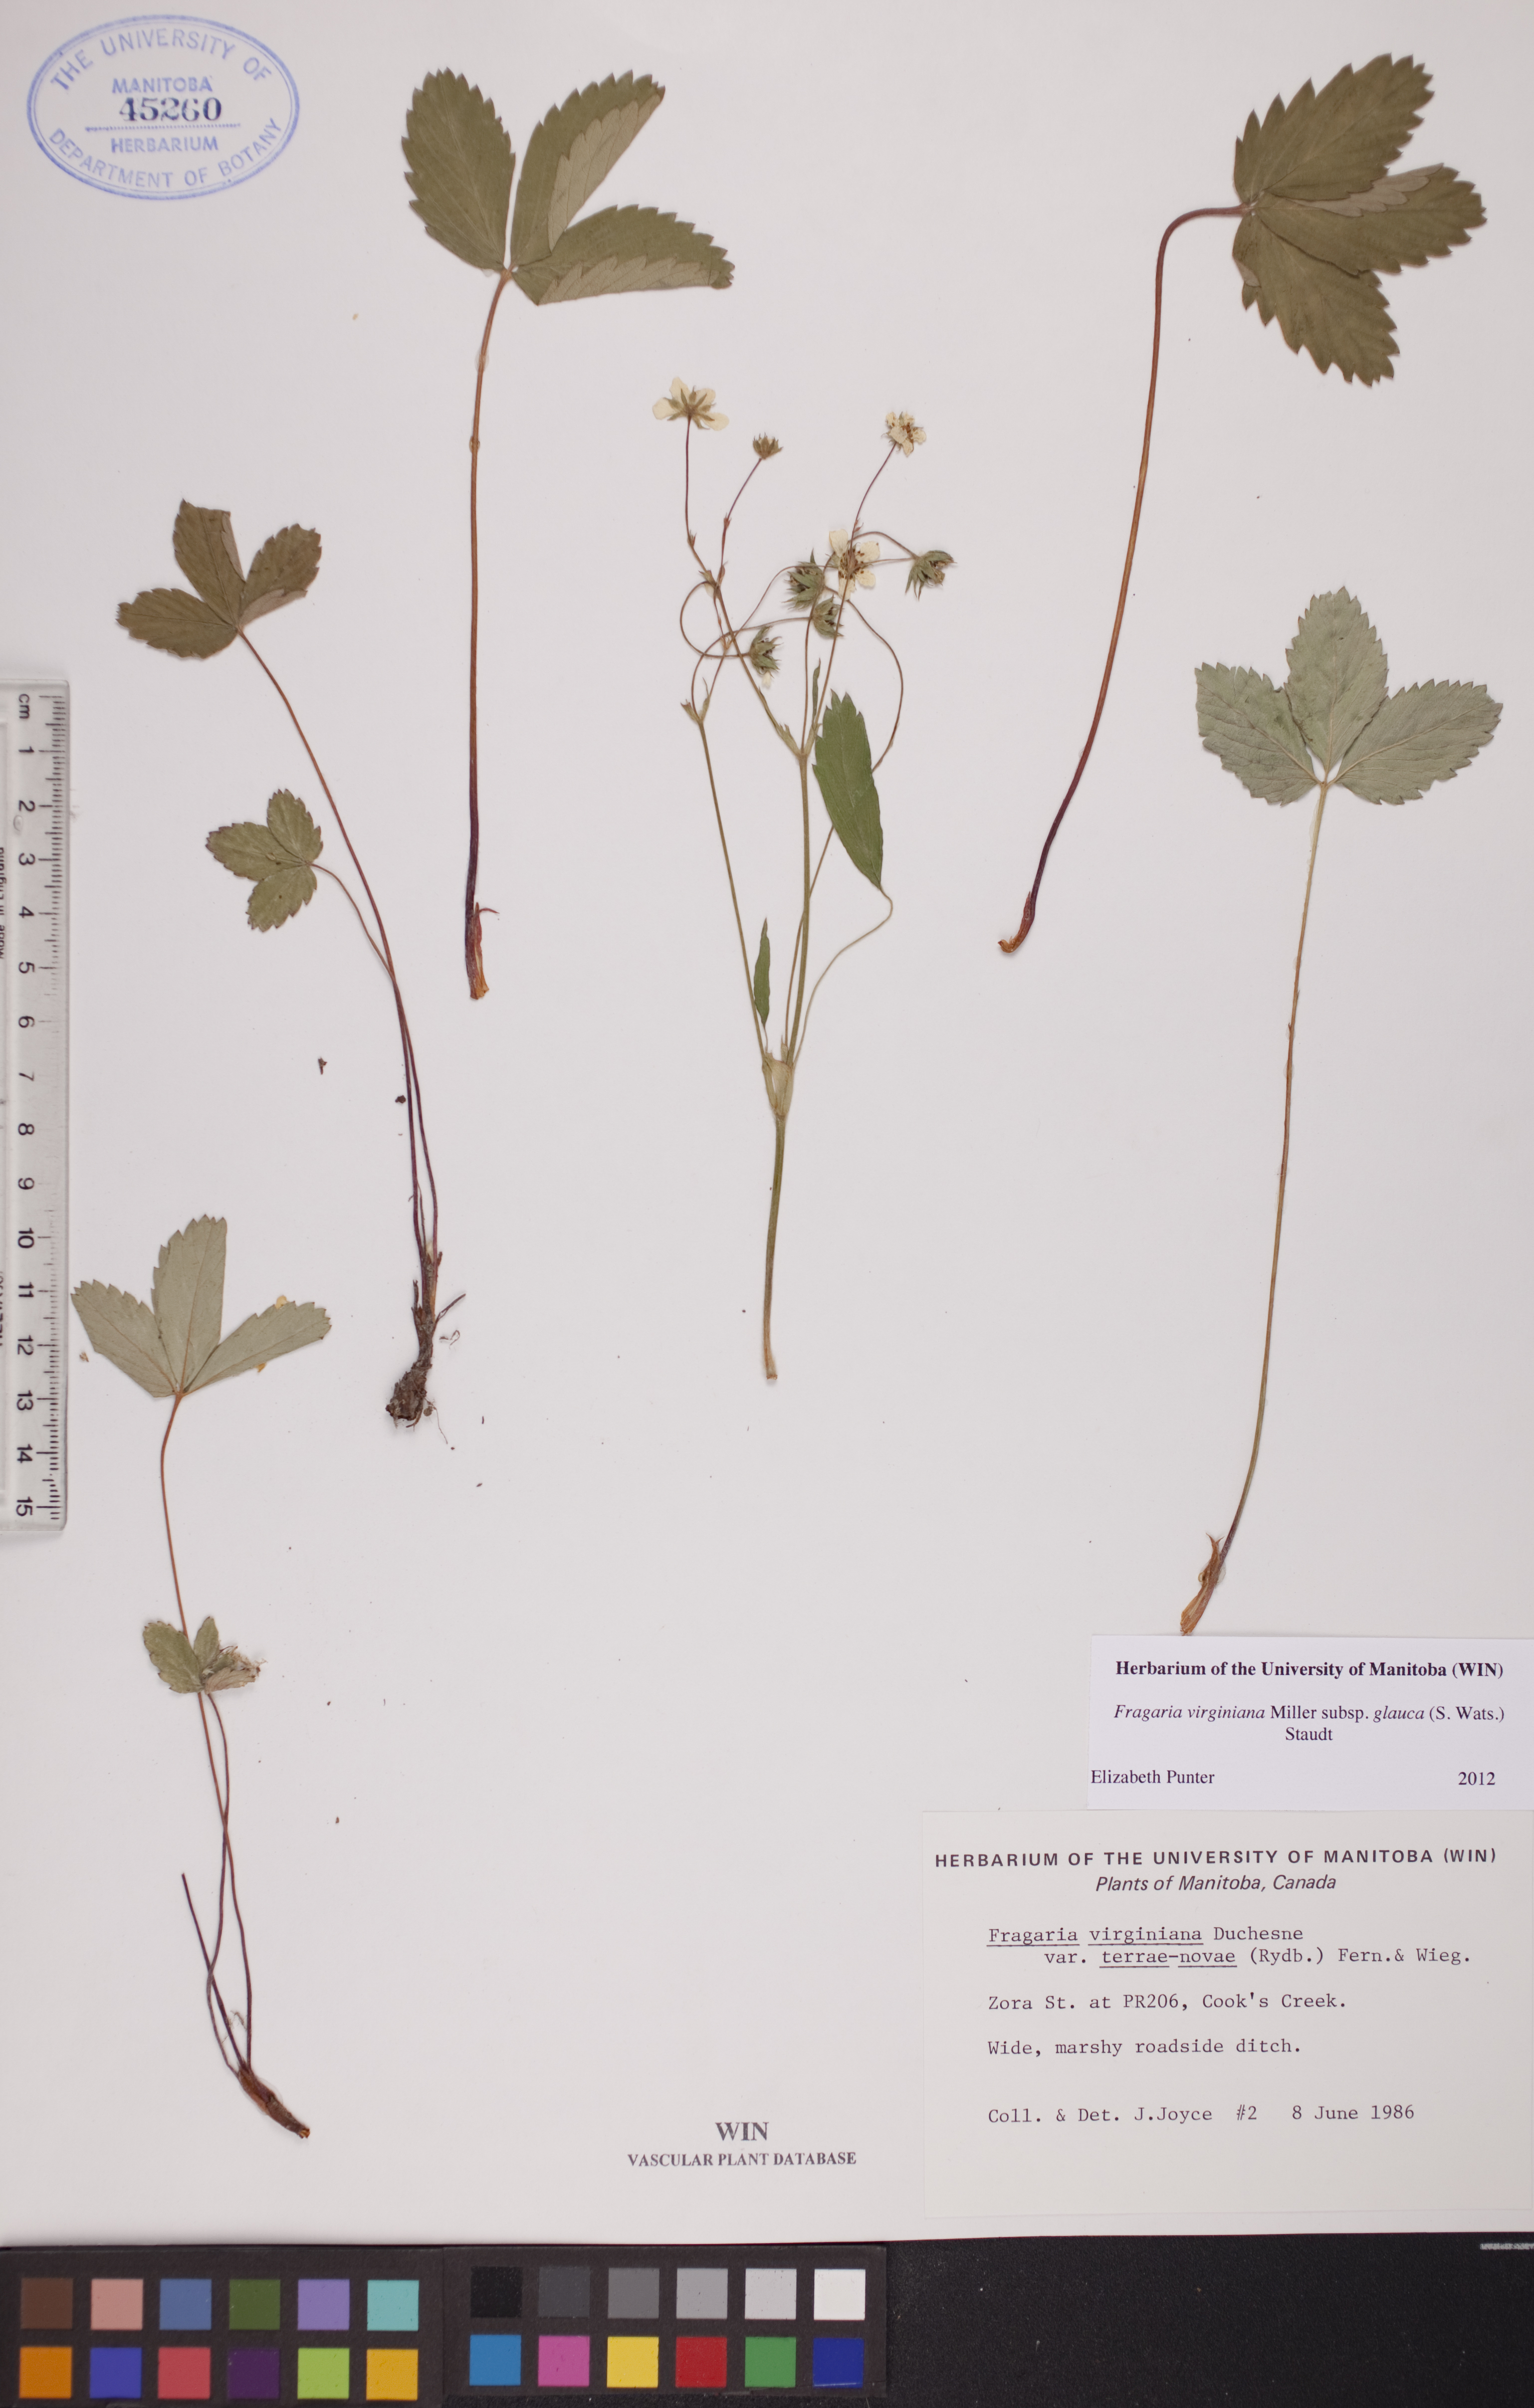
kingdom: Plantae
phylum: Tracheophyta
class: Magnoliopsida
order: Rosales
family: Rosaceae
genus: Fragaria
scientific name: Fragaria virginiana
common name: Thickleaved wild strawberry
